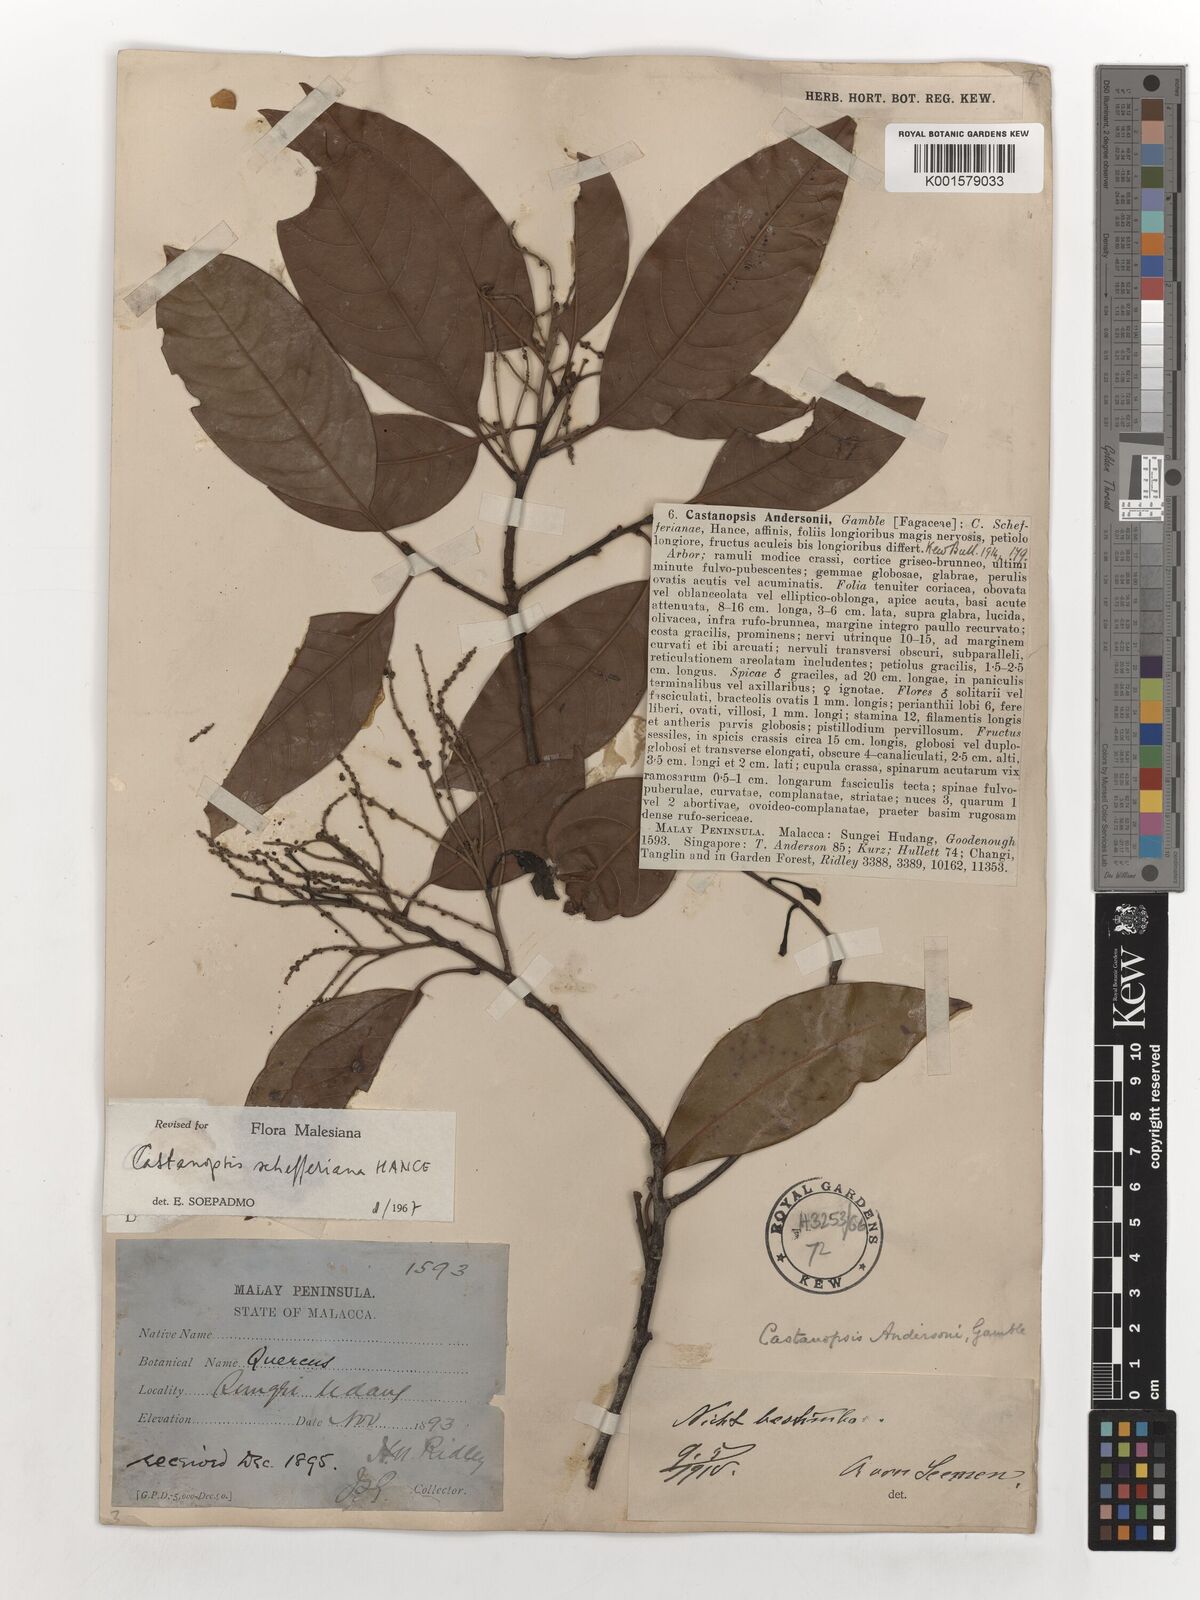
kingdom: Plantae
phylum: Tracheophyta
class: Magnoliopsida
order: Fagales
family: Fagaceae
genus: Castanopsis
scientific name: Castanopsis schefferiana
